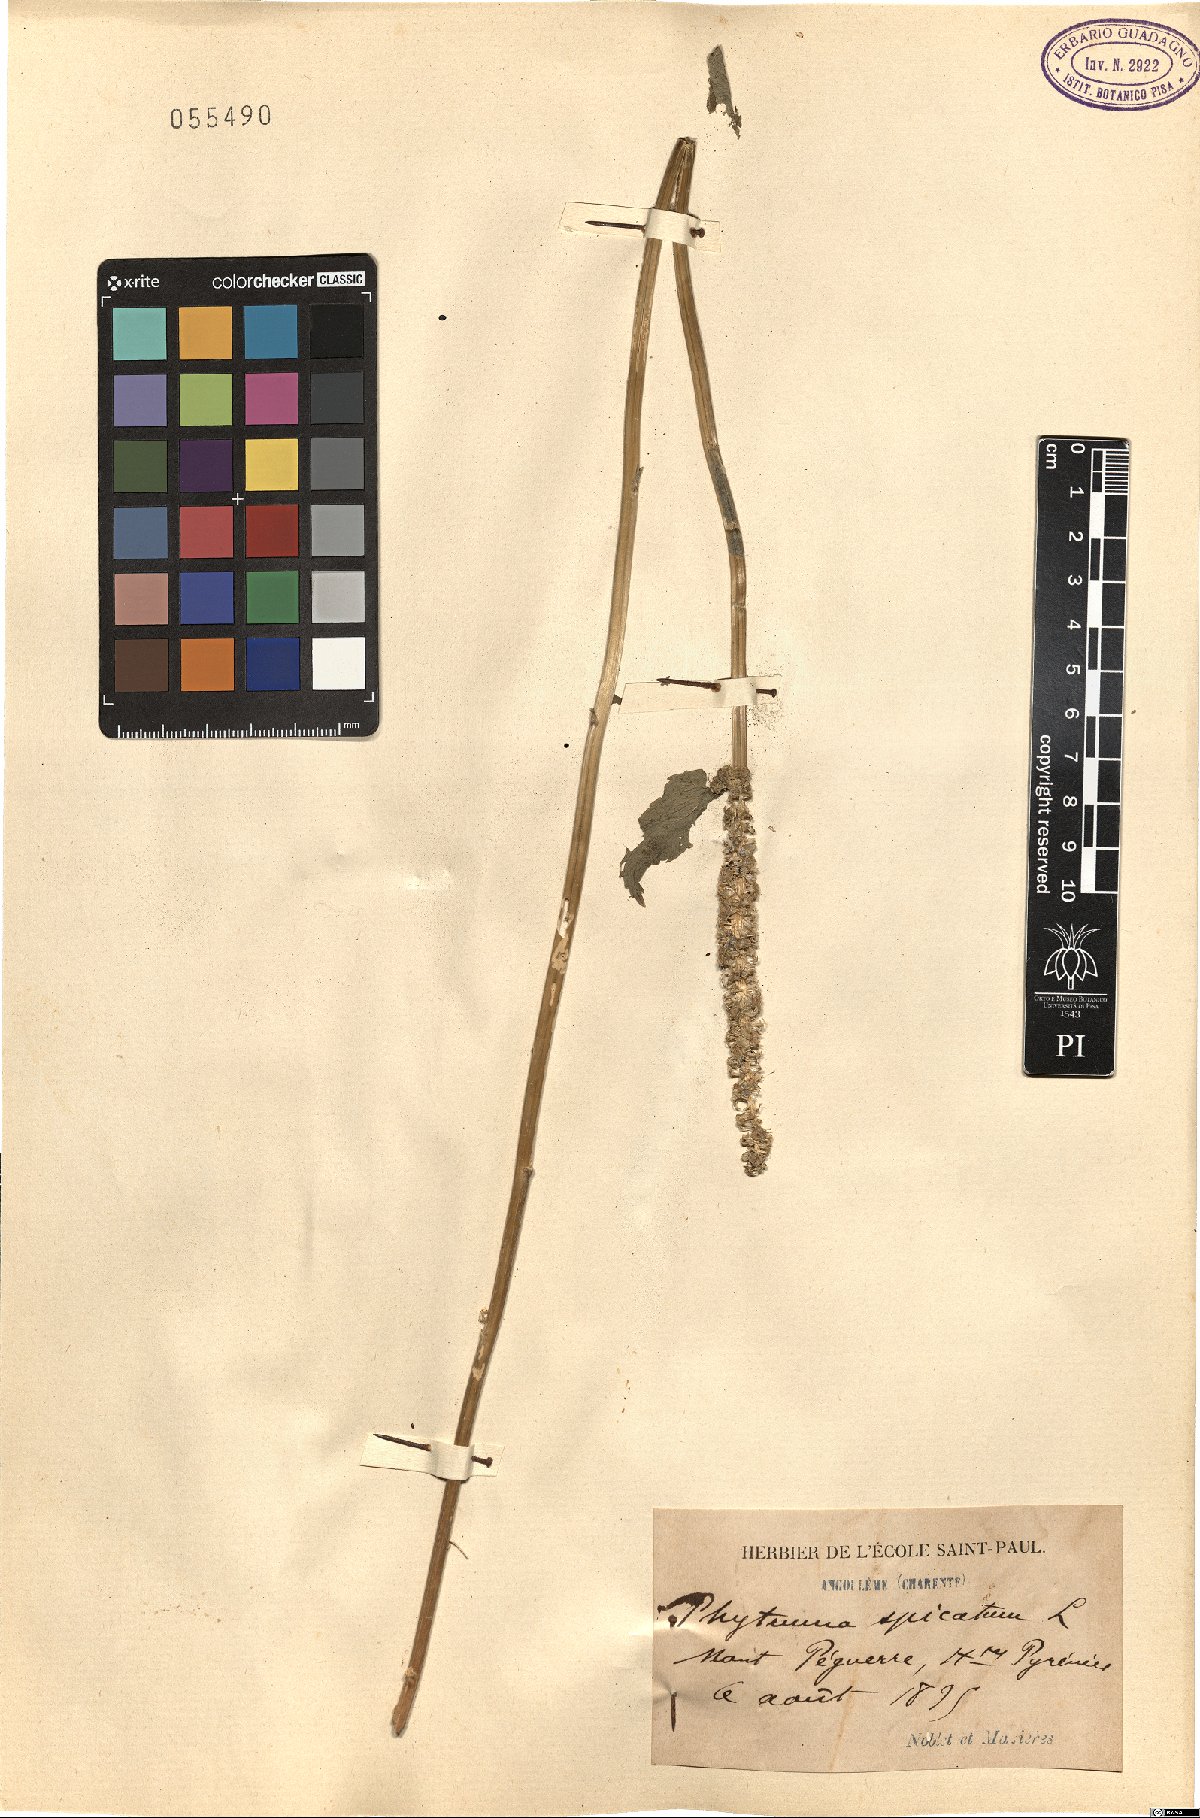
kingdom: Plantae
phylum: Tracheophyta
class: Magnoliopsida
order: Asterales
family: Campanulaceae
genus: Phyteuma
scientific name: Phyteuma spicatum
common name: Spiked rampion
